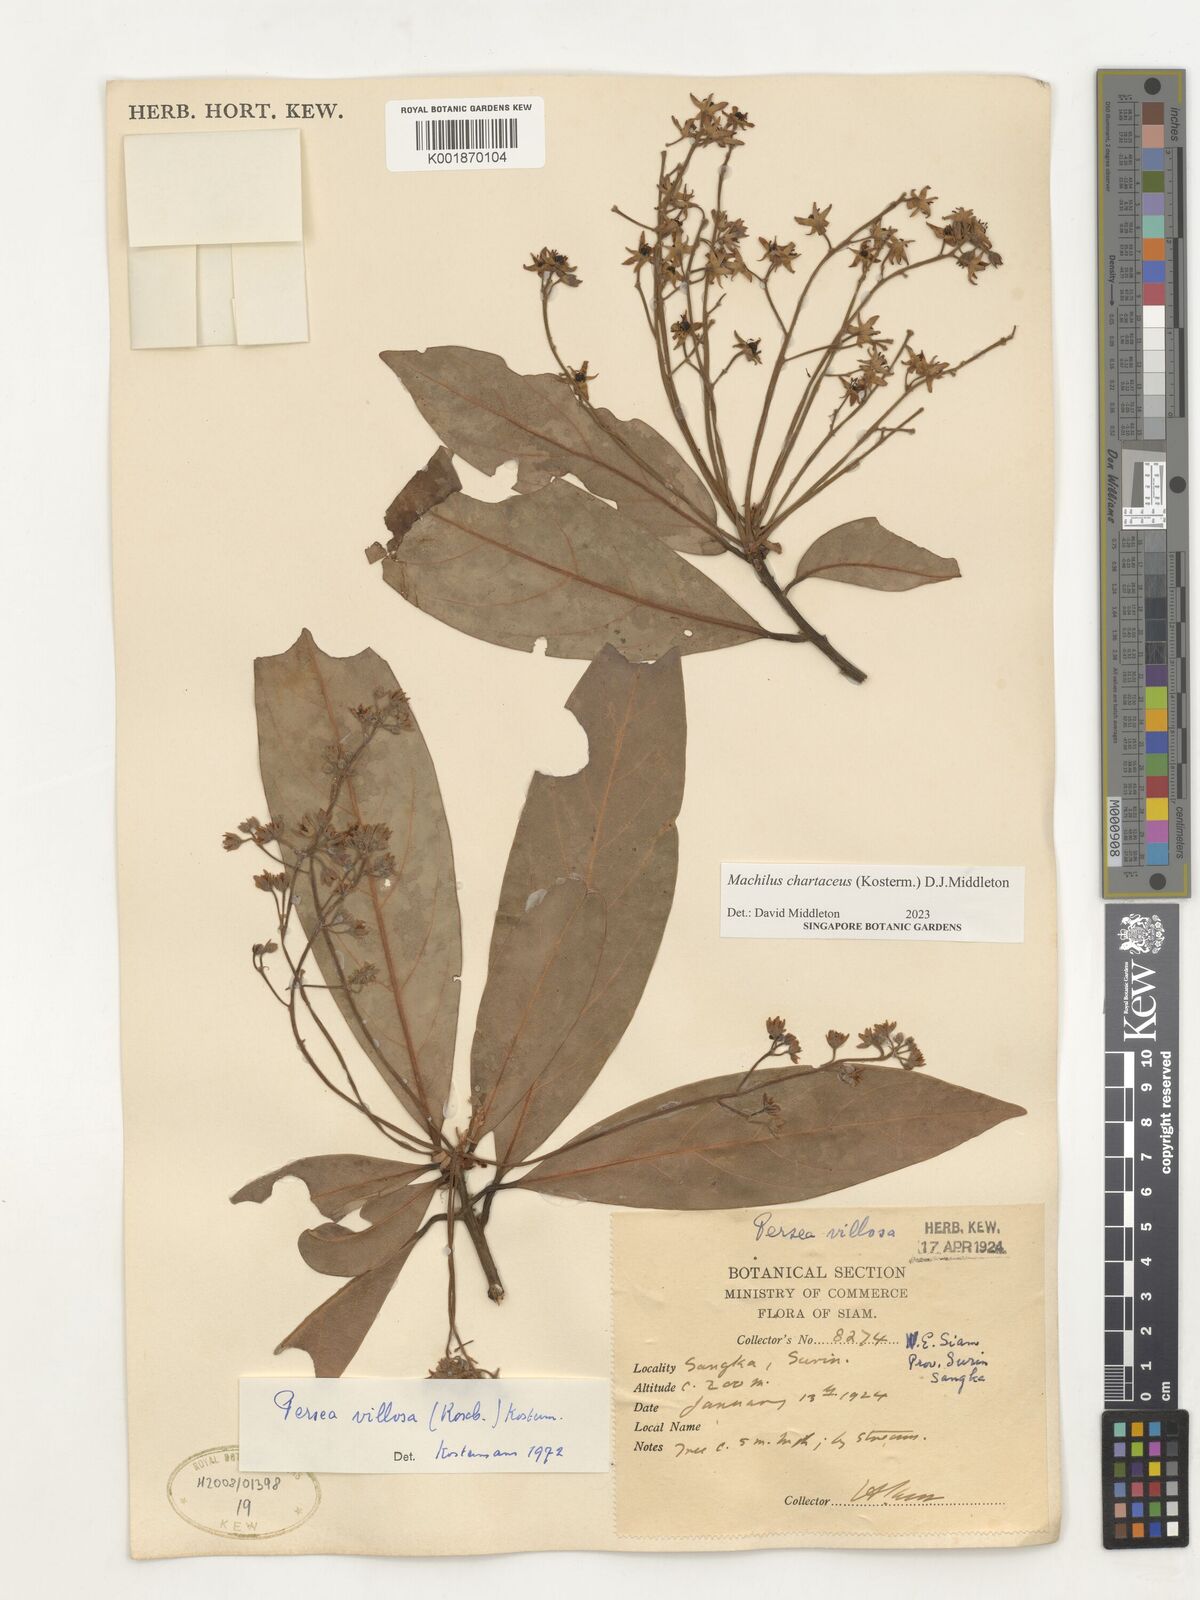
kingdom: Plantae
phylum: Tracheophyta
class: Magnoliopsida
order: Laurales
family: Lauraceae
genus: Machilus
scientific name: Machilus
